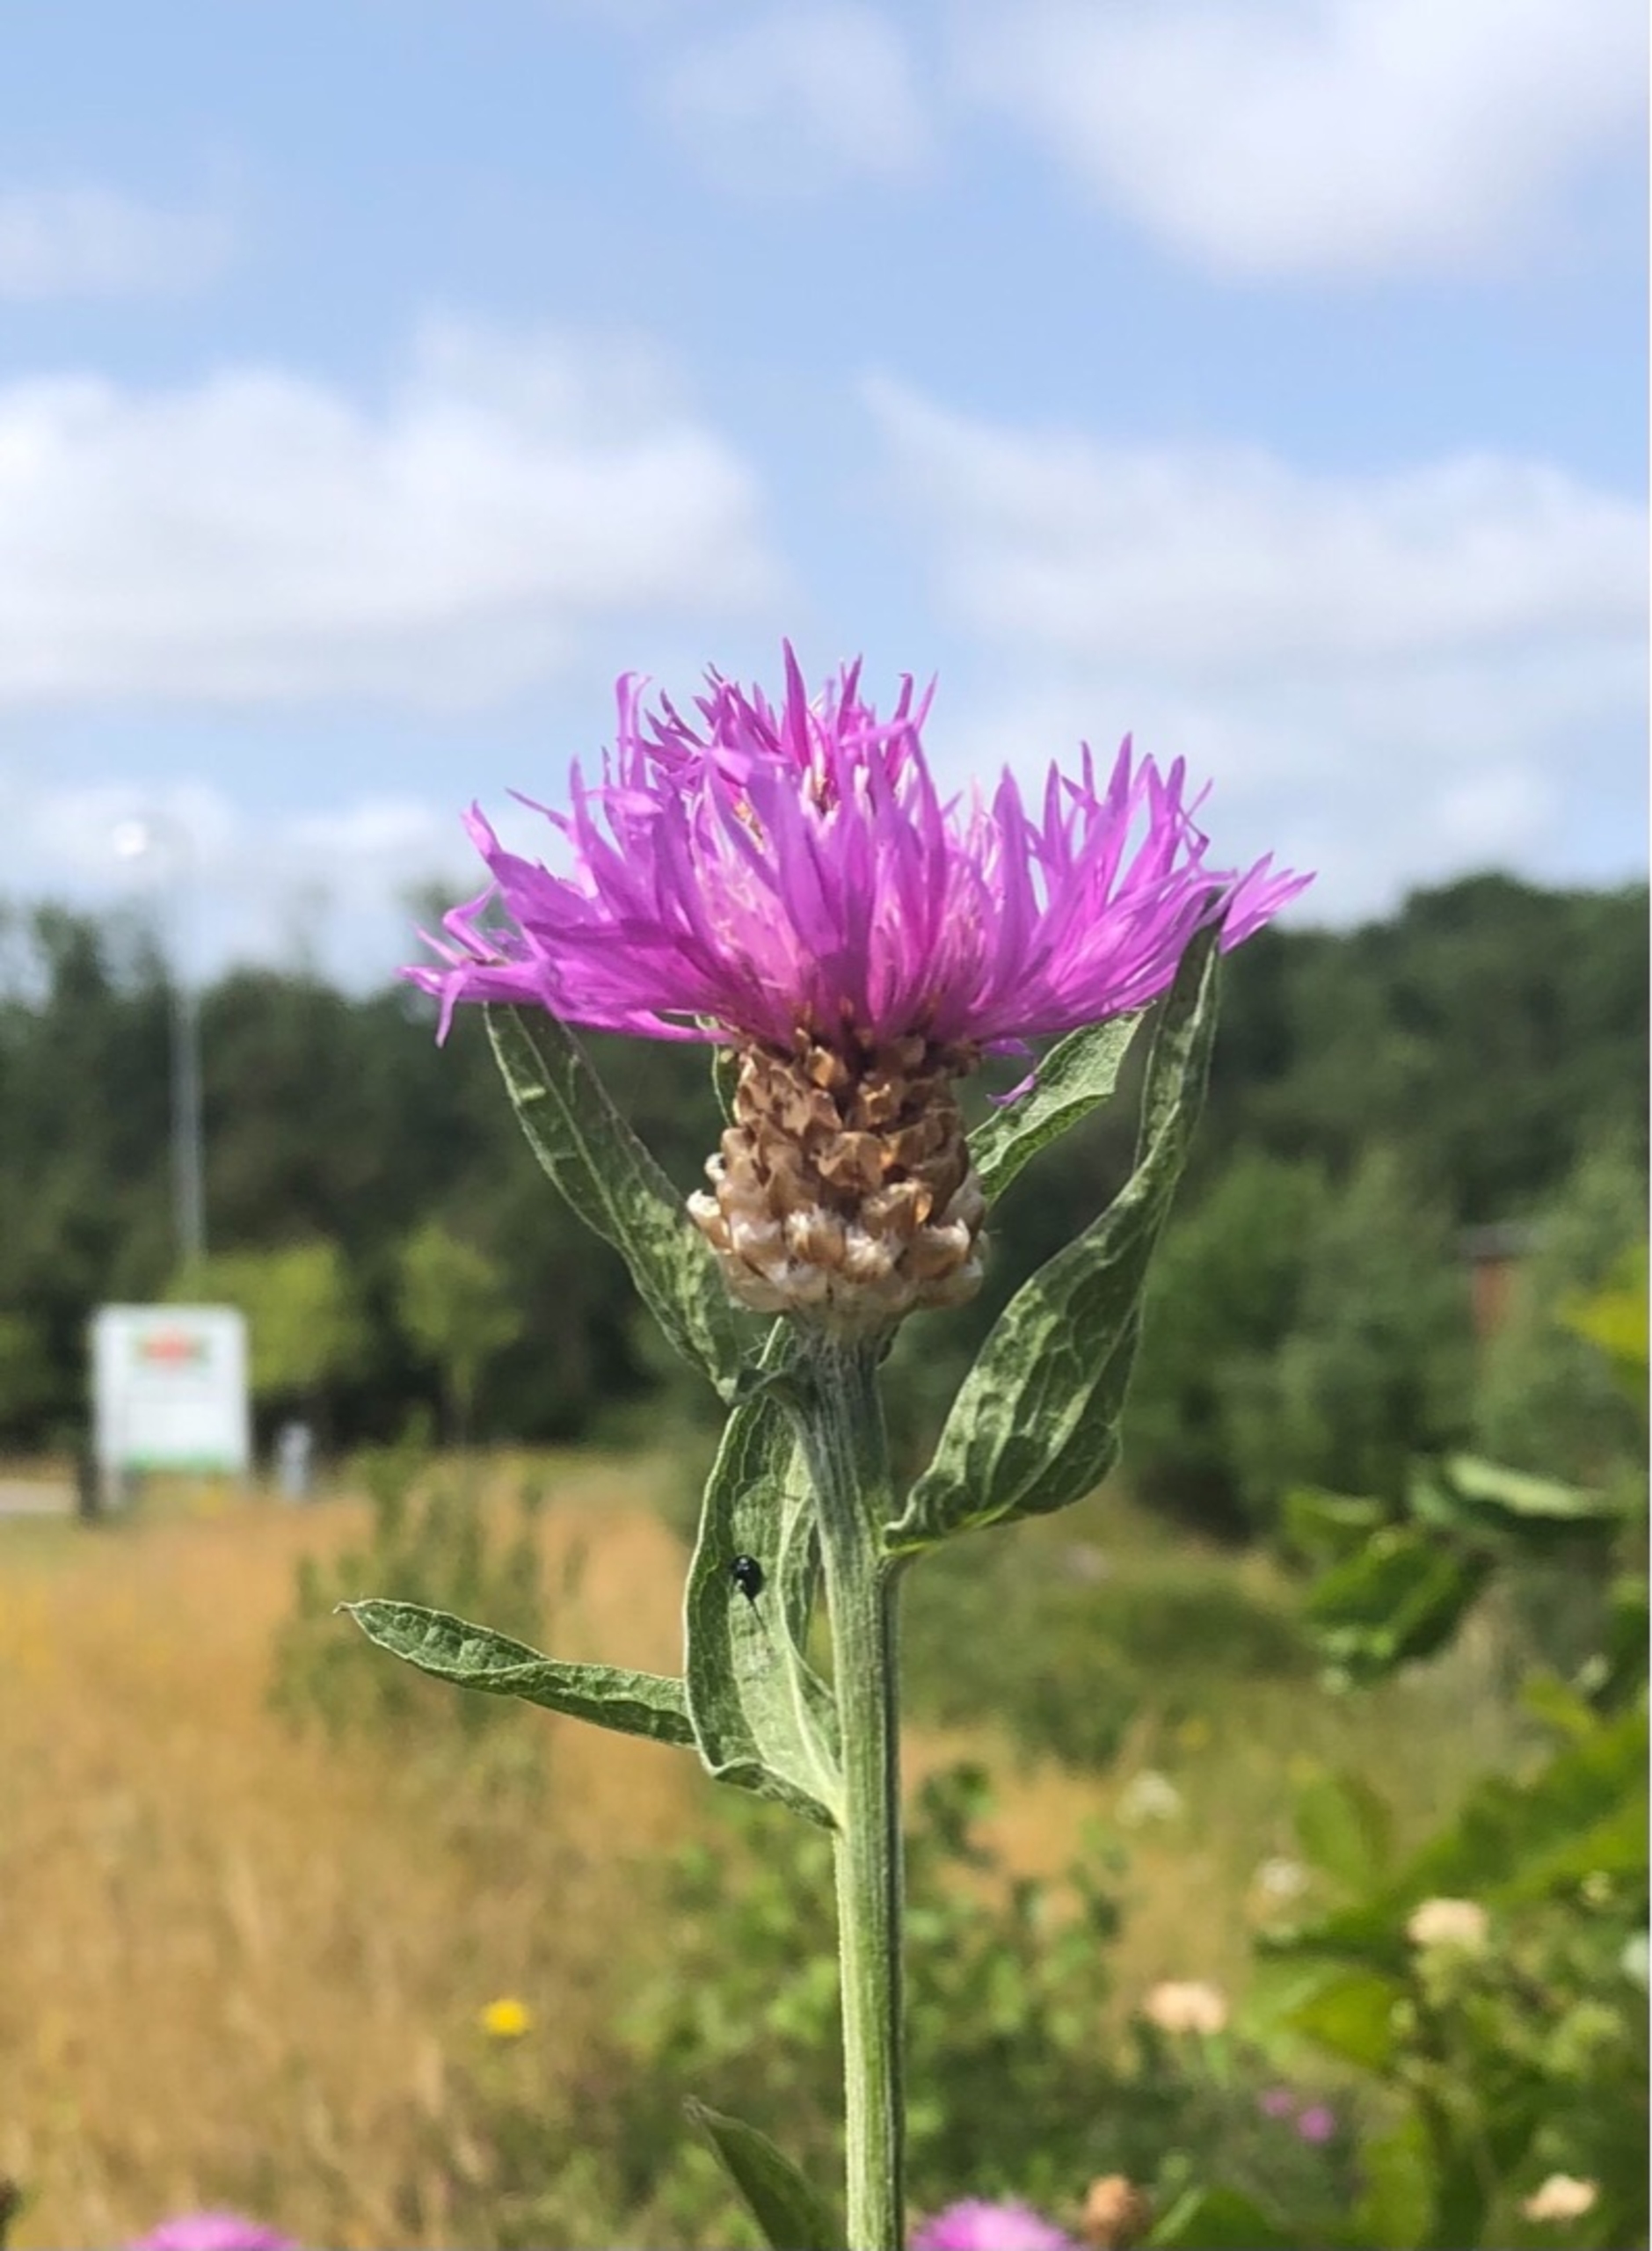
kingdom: Plantae
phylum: Tracheophyta
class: Magnoliopsida
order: Asterales
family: Asteraceae
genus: Centaurea
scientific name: Centaurea jacea
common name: Almindelig knopurt
